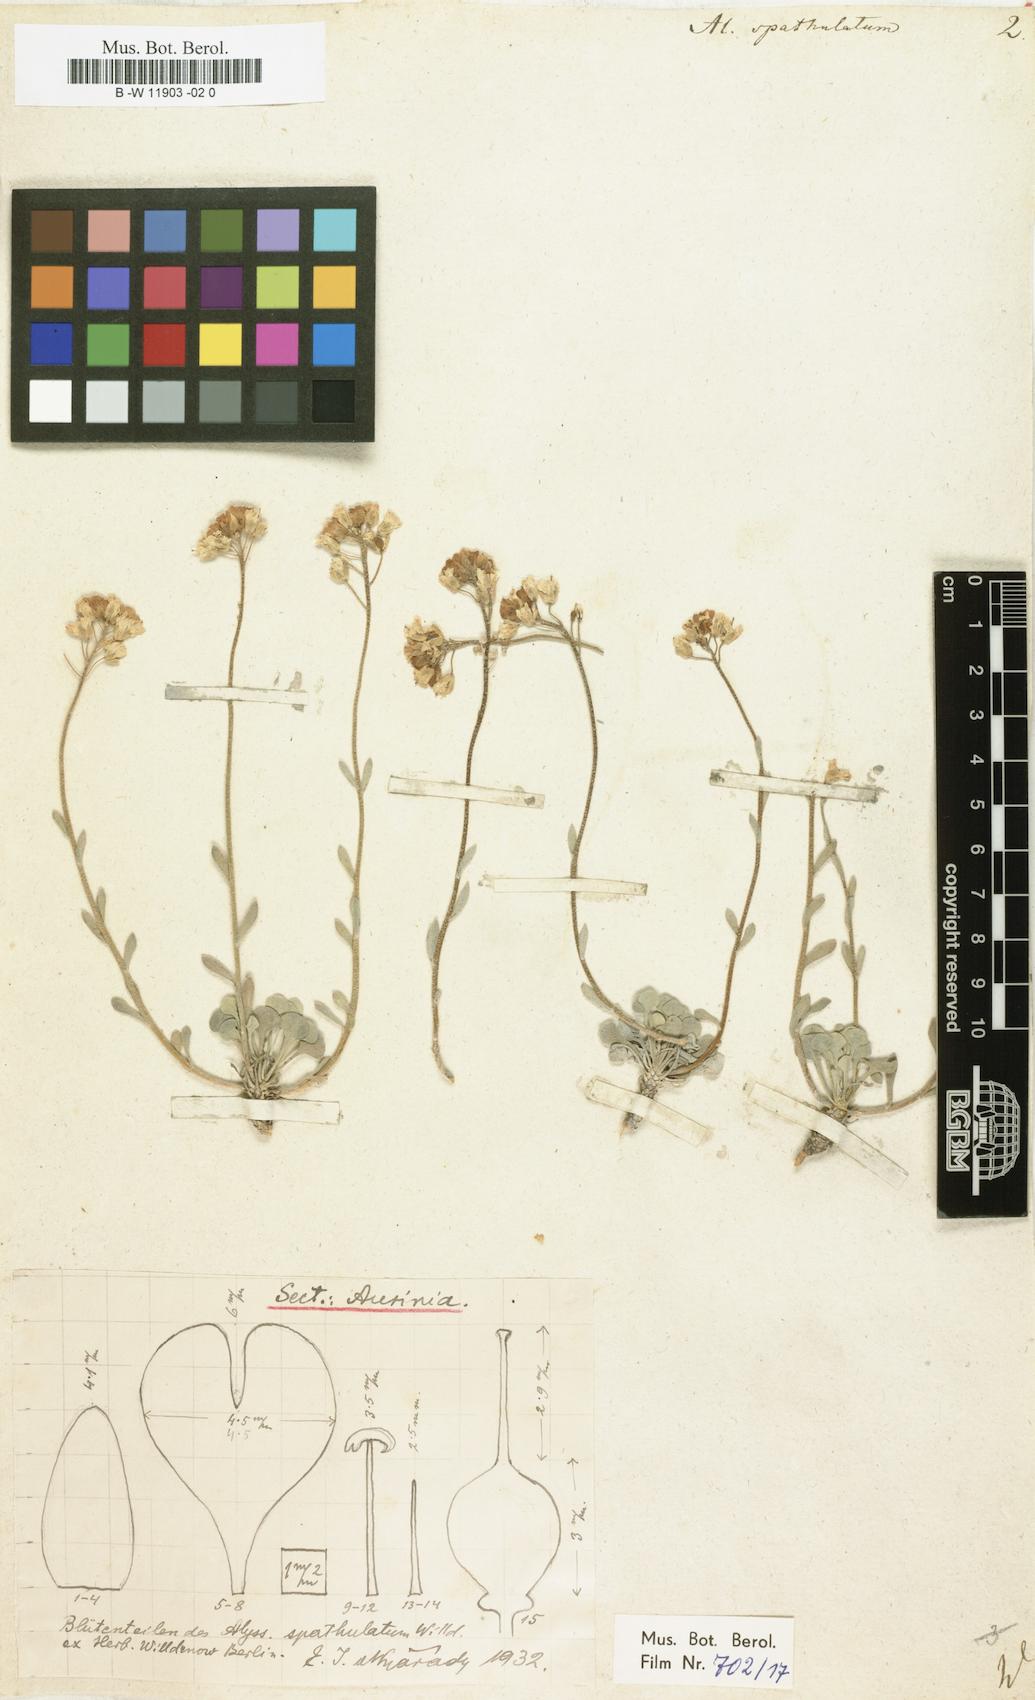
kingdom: Plantae
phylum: Tracheophyta
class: Magnoliopsida
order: Brassicales
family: Brassicaceae
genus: Galitzkya
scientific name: Galitzkya spathulata
